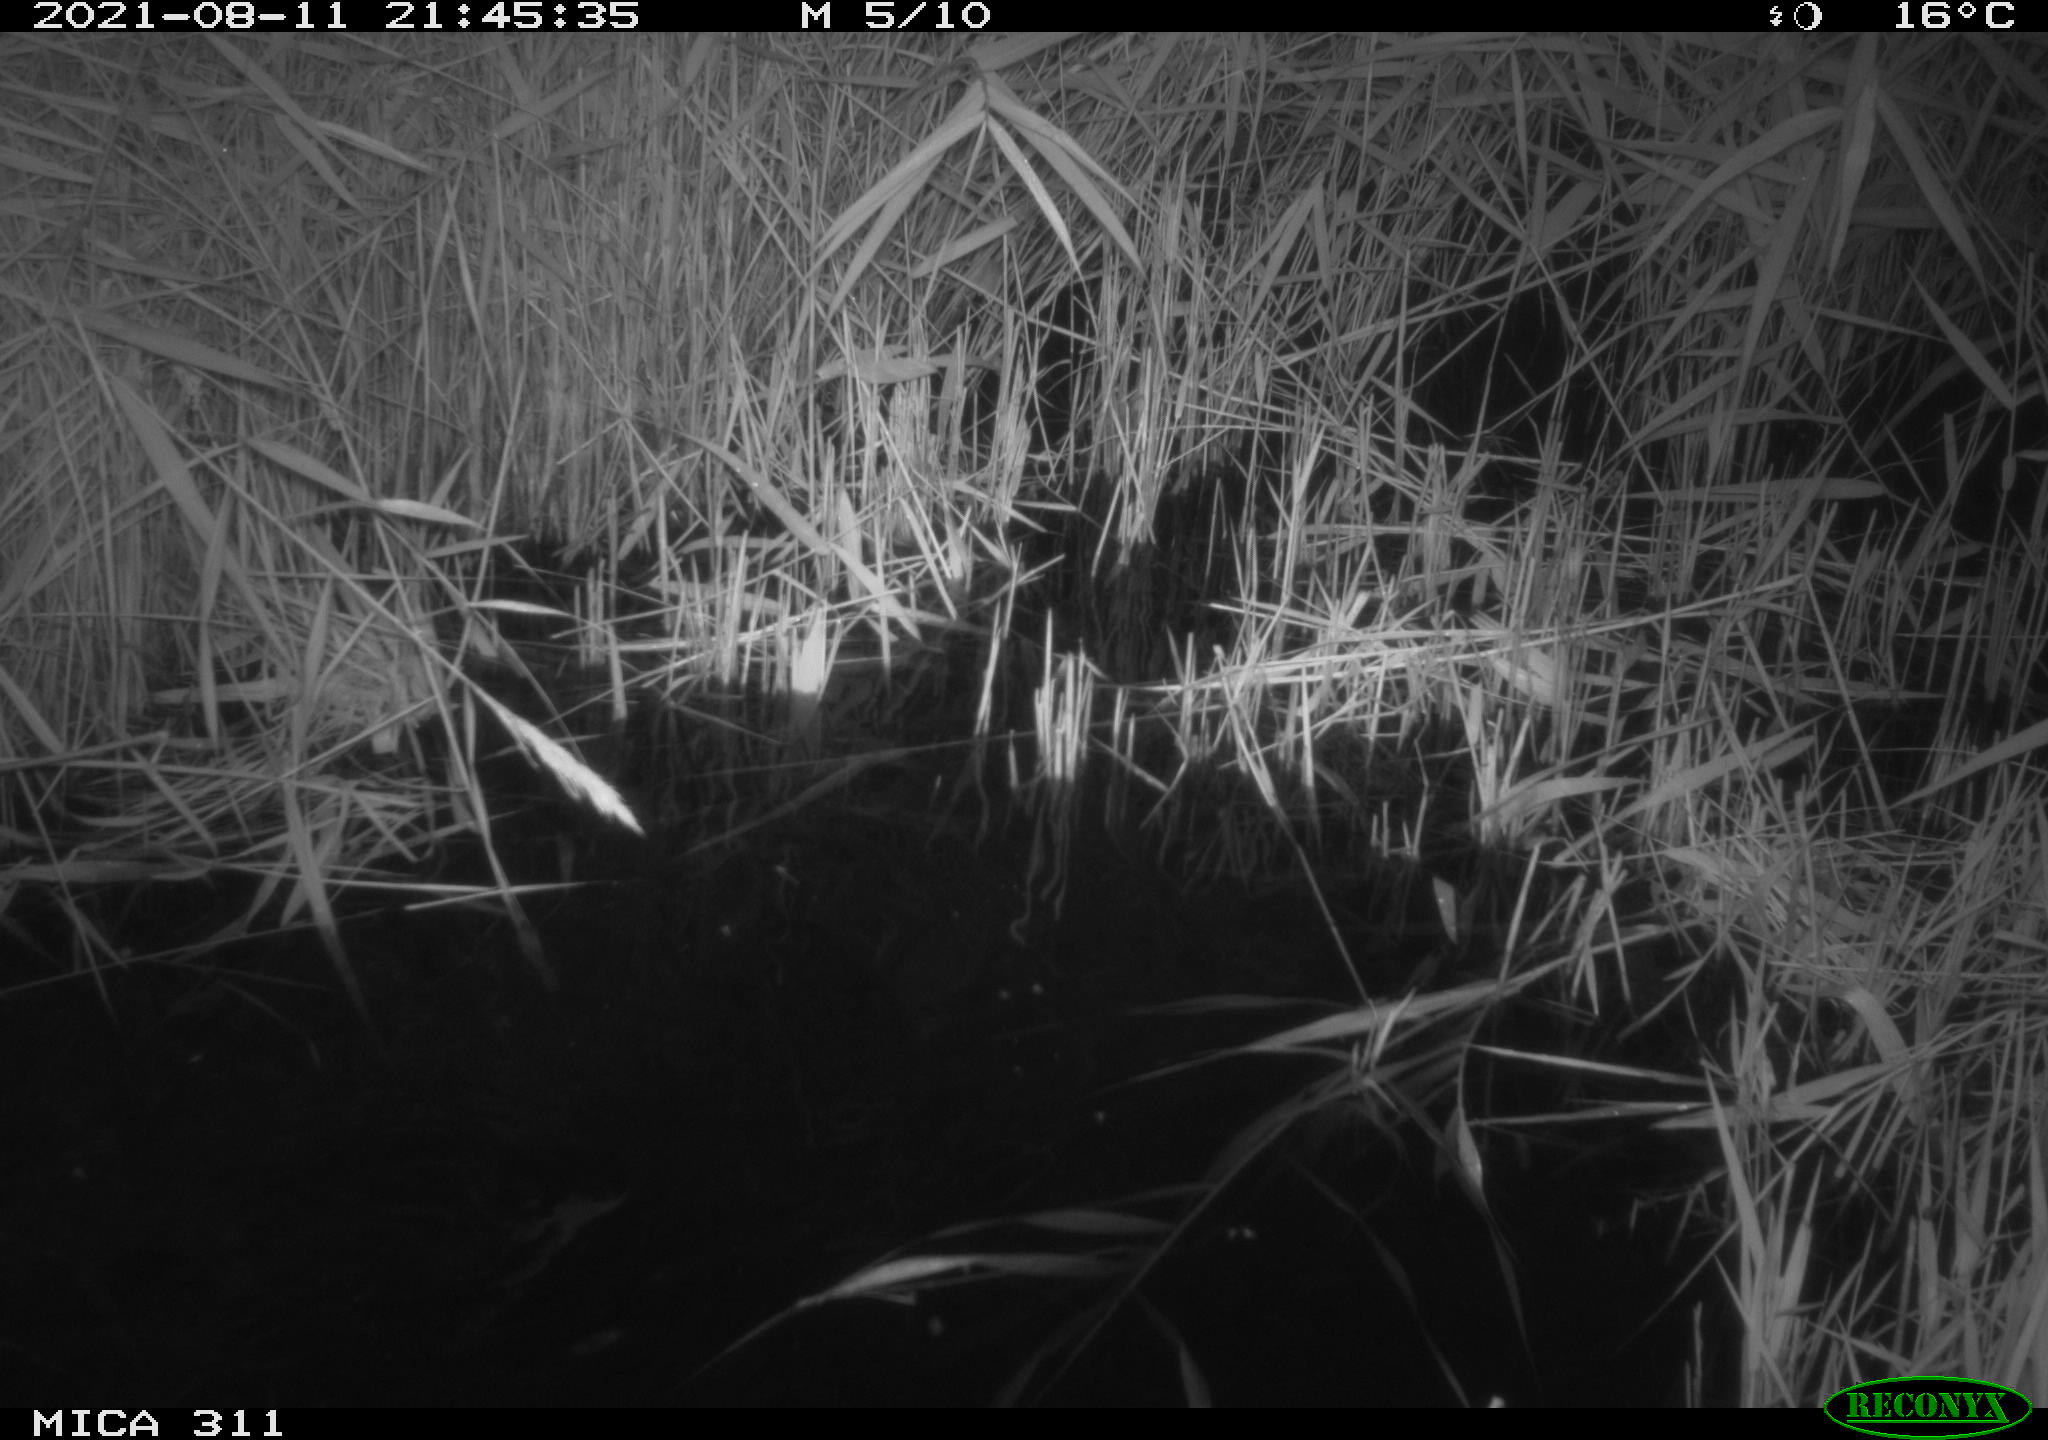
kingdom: Animalia
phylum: Chordata
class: Mammalia
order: Rodentia
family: Muridae
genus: Rattus
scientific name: Rattus norvegicus
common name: Brown rat
